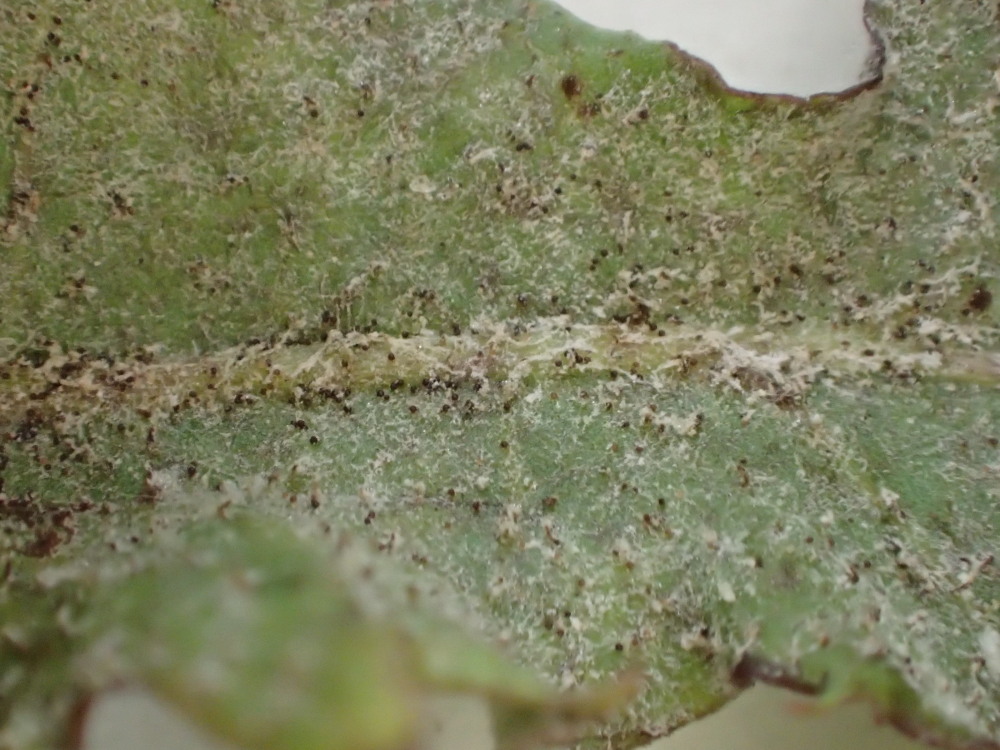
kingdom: Fungi
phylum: Ascomycota
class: Leotiomycetes
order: Helotiales
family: Erysiphaceae
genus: Podosphaera
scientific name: Podosphaera erigerontis-canadensis
